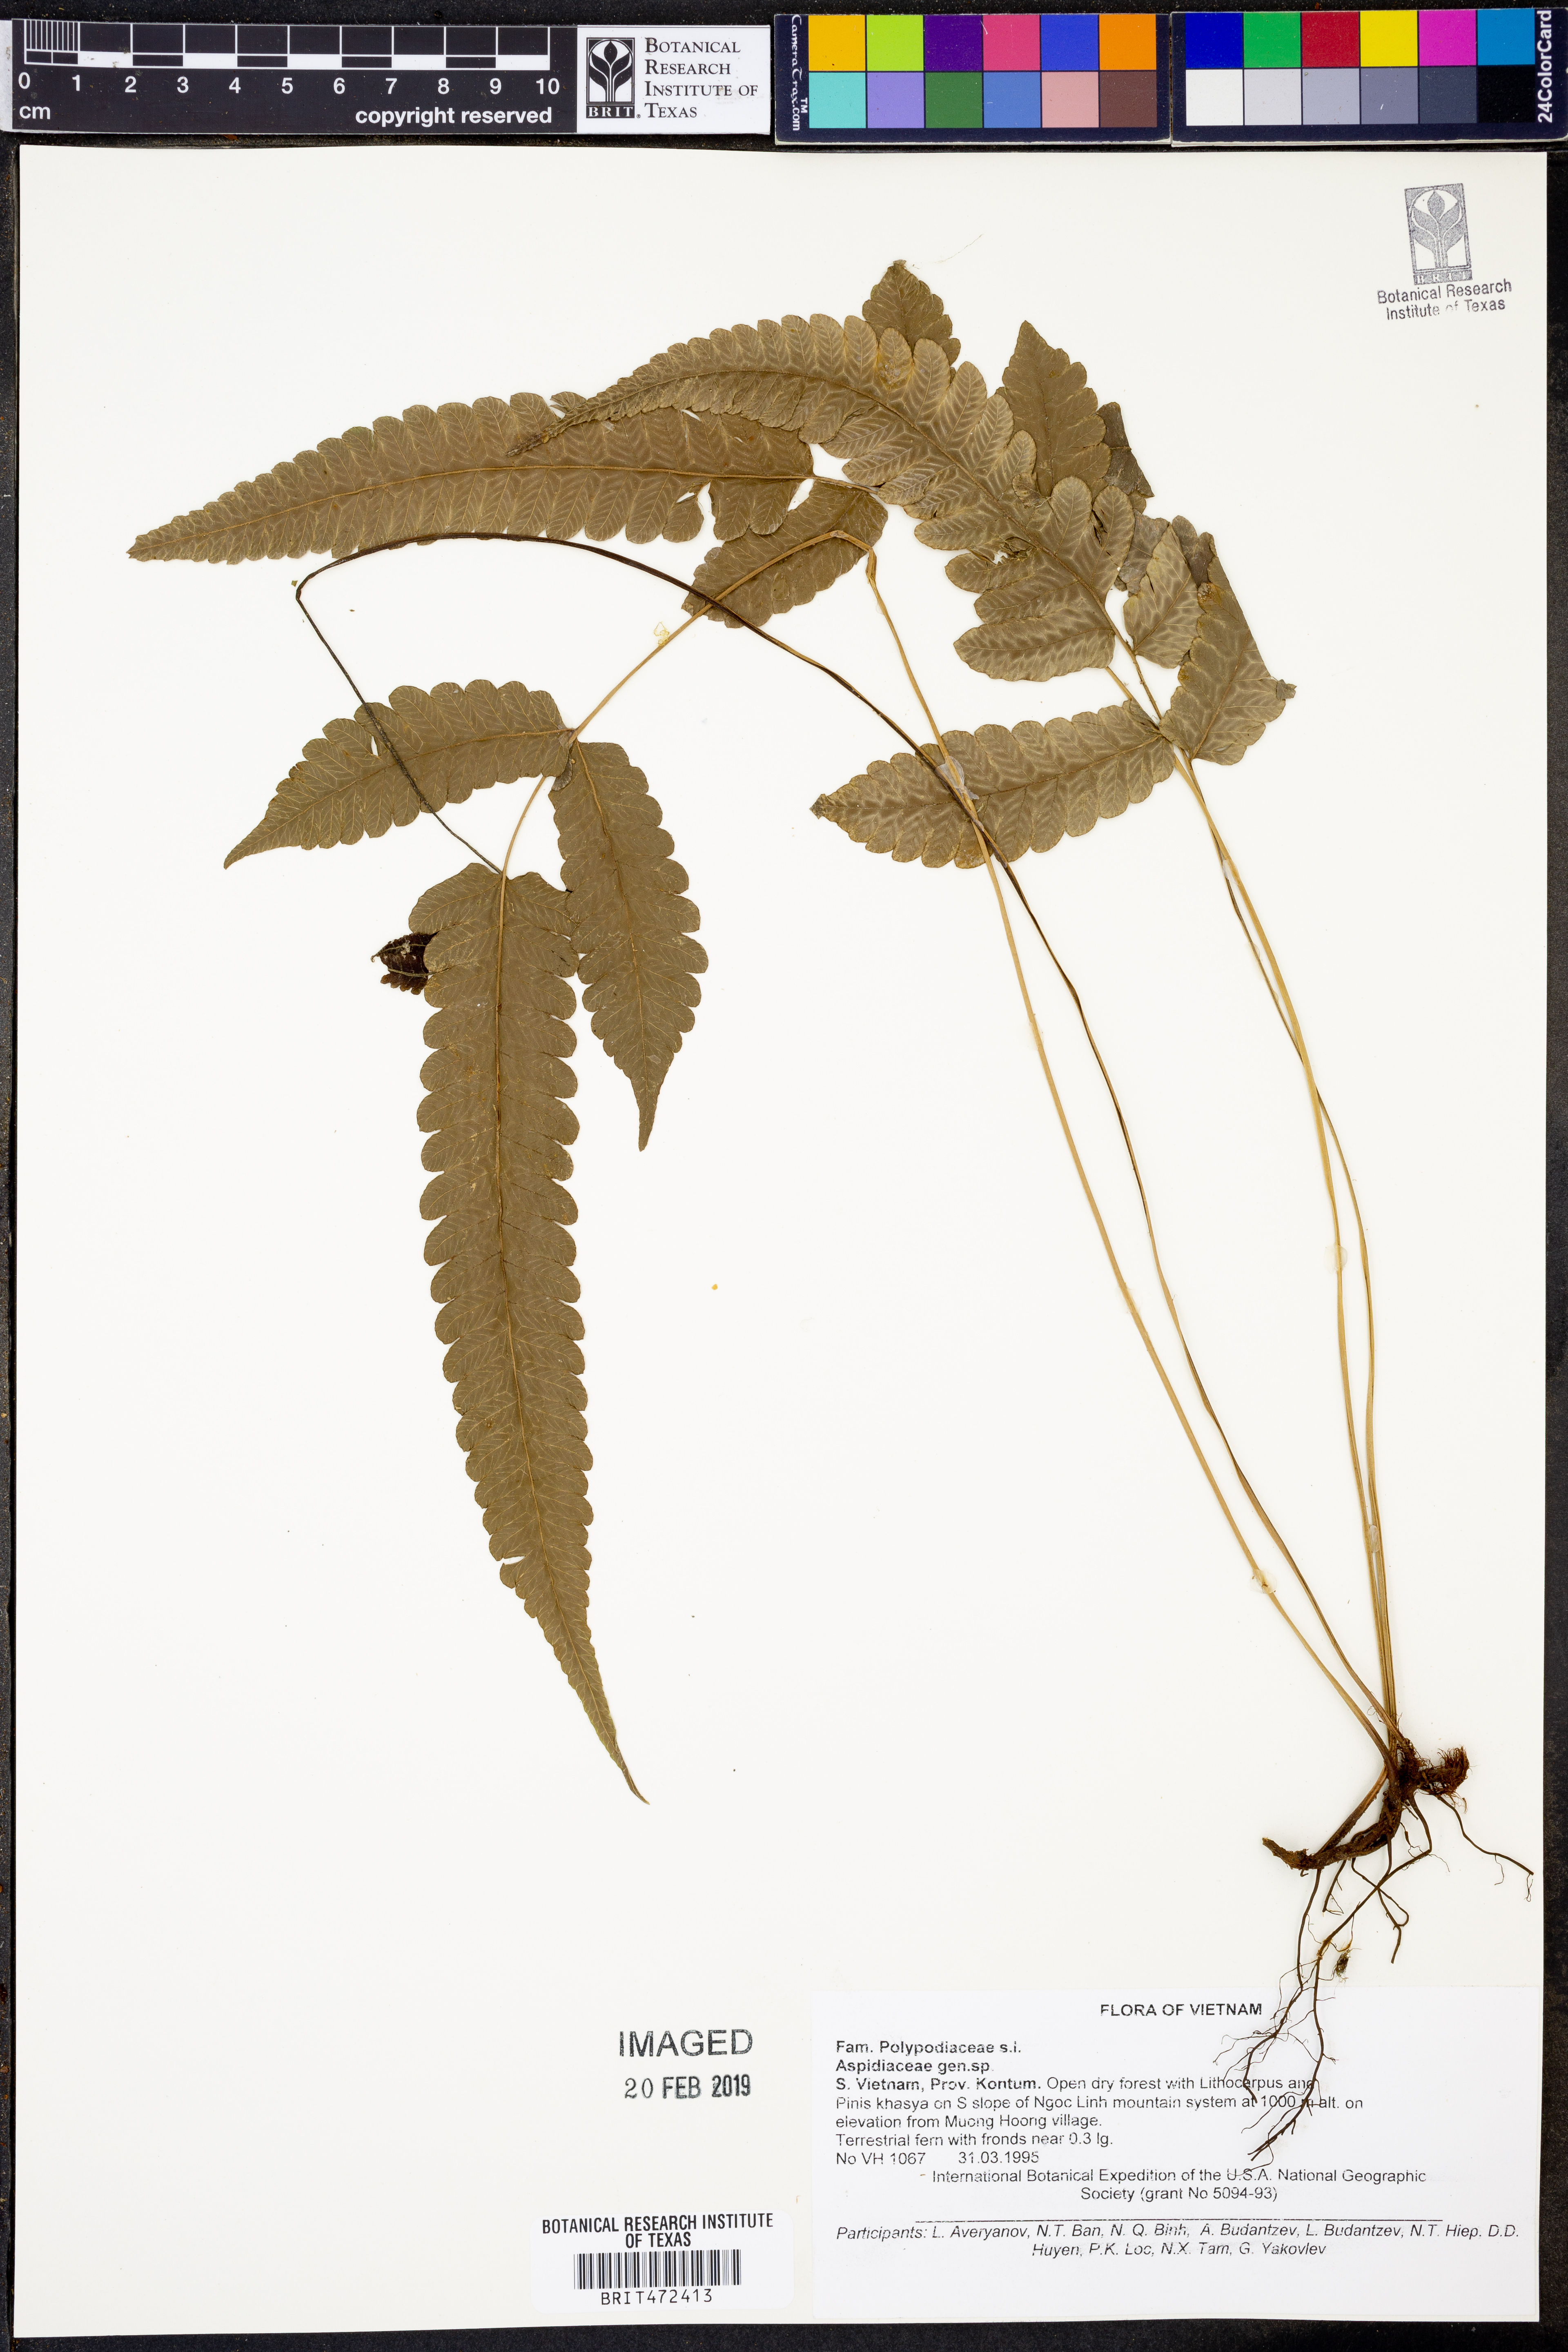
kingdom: Plantae
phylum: Tracheophyta
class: Polypodiopsida
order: Polypodiales
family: Thelypteridaceae
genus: Pronephrium
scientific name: Pronephrium
